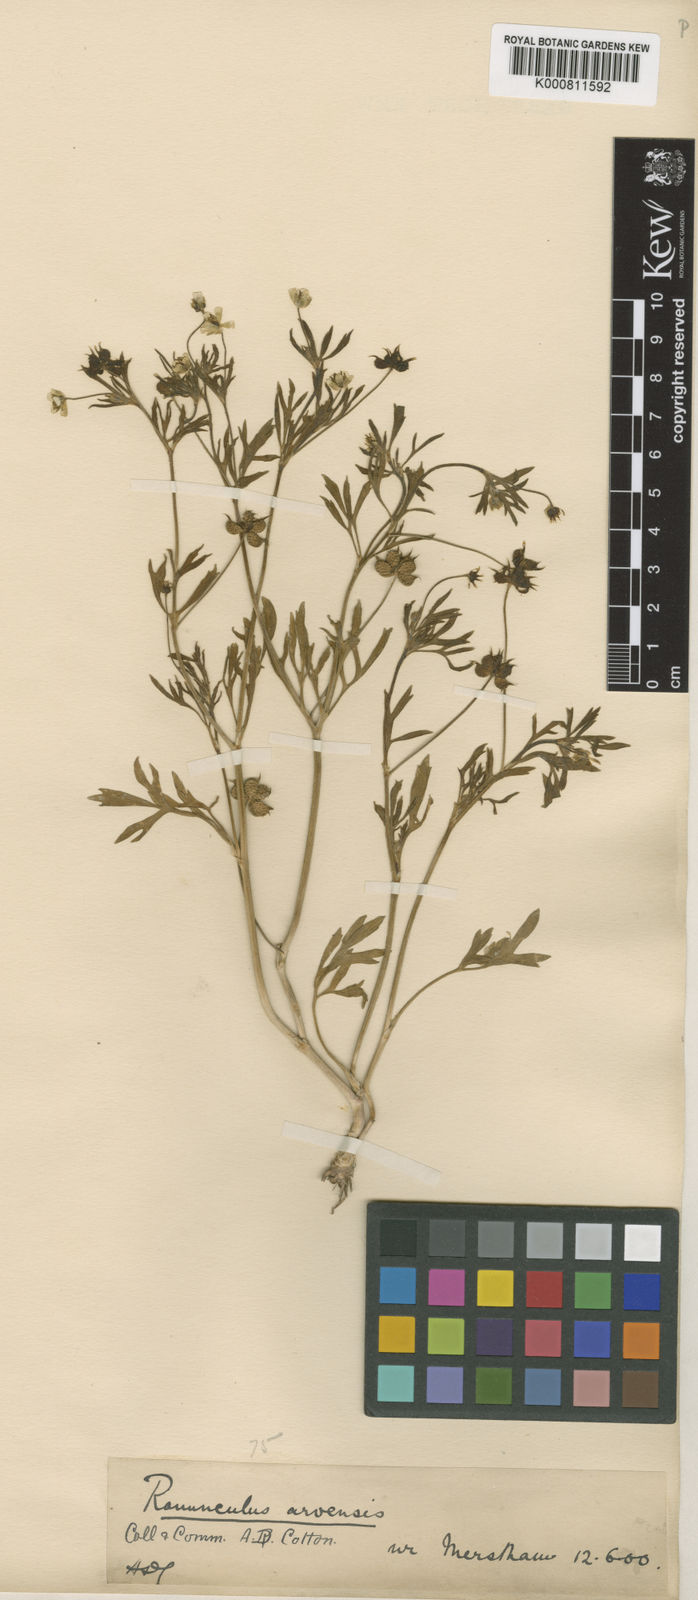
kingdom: Plantae
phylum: Tracheophyta
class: Magnoliopsida
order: Ranunculales
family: Ranunculaceae
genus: Ranunculus
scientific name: Ranunculus arvensis
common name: Corn buttercup
